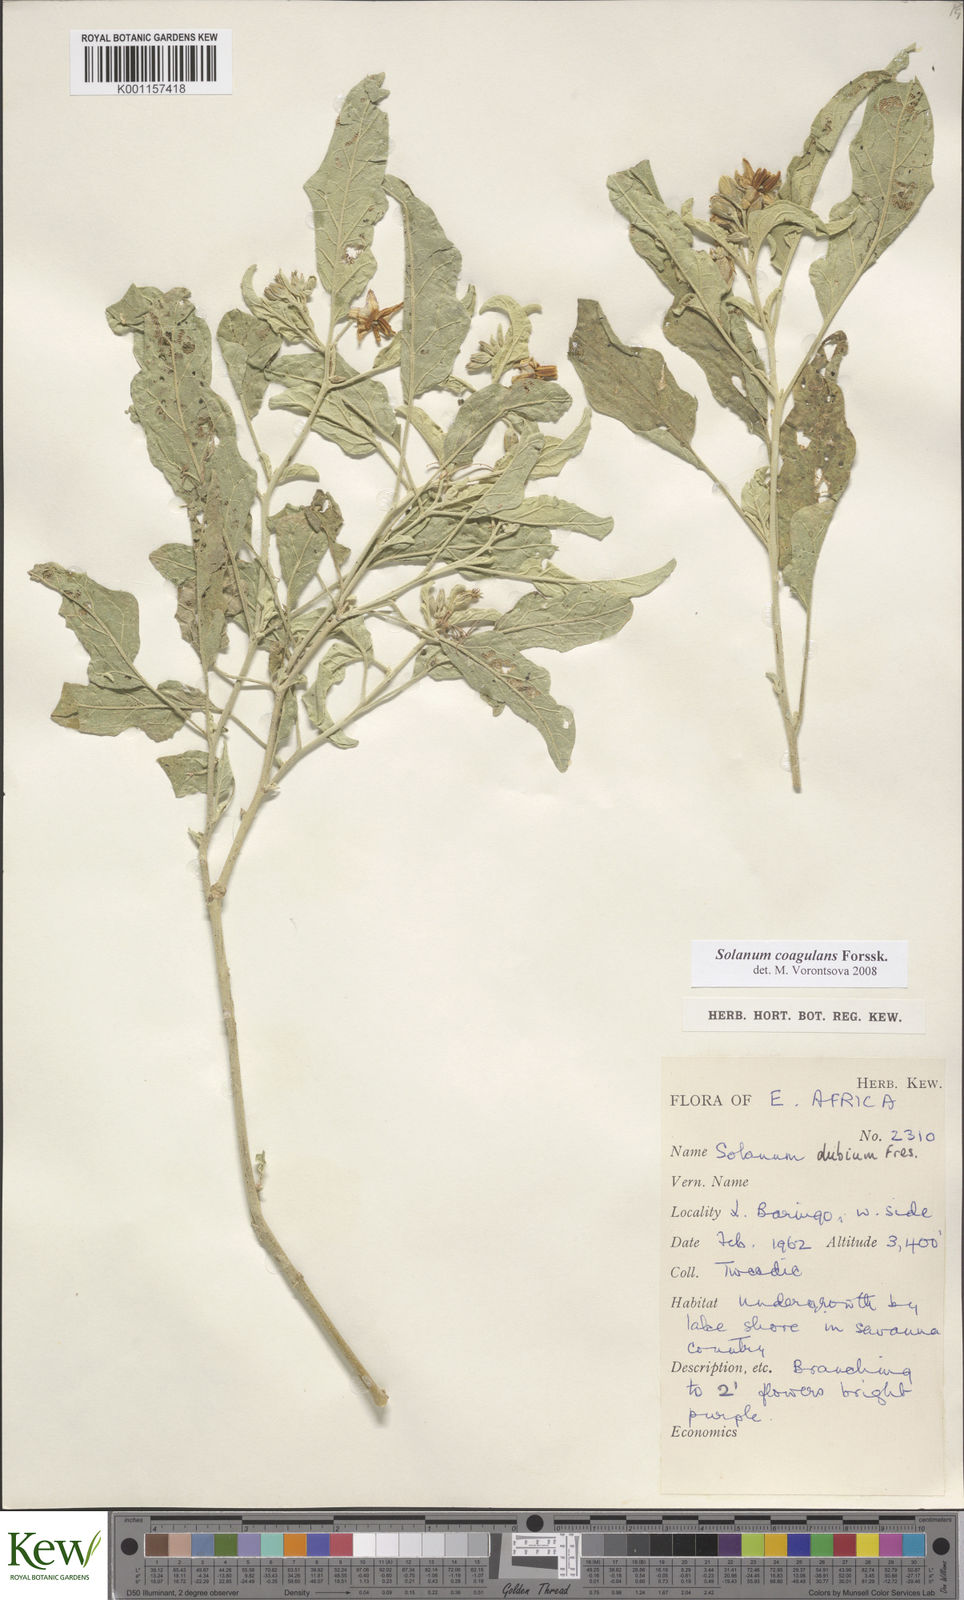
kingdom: Plantae
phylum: Tracheophyta
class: Magnoliopsida
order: Solanales
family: Solanaceae
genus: Solanum
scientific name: Solanum coagulans
